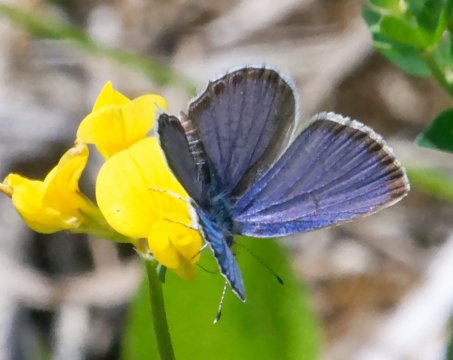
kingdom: Animalia
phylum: Arthropoda
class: Insecta
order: Lepidoptera
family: Lycaenidae
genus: Elkalyce
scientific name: Elkalyce comyntas
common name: Eastern Tailed-Blue
